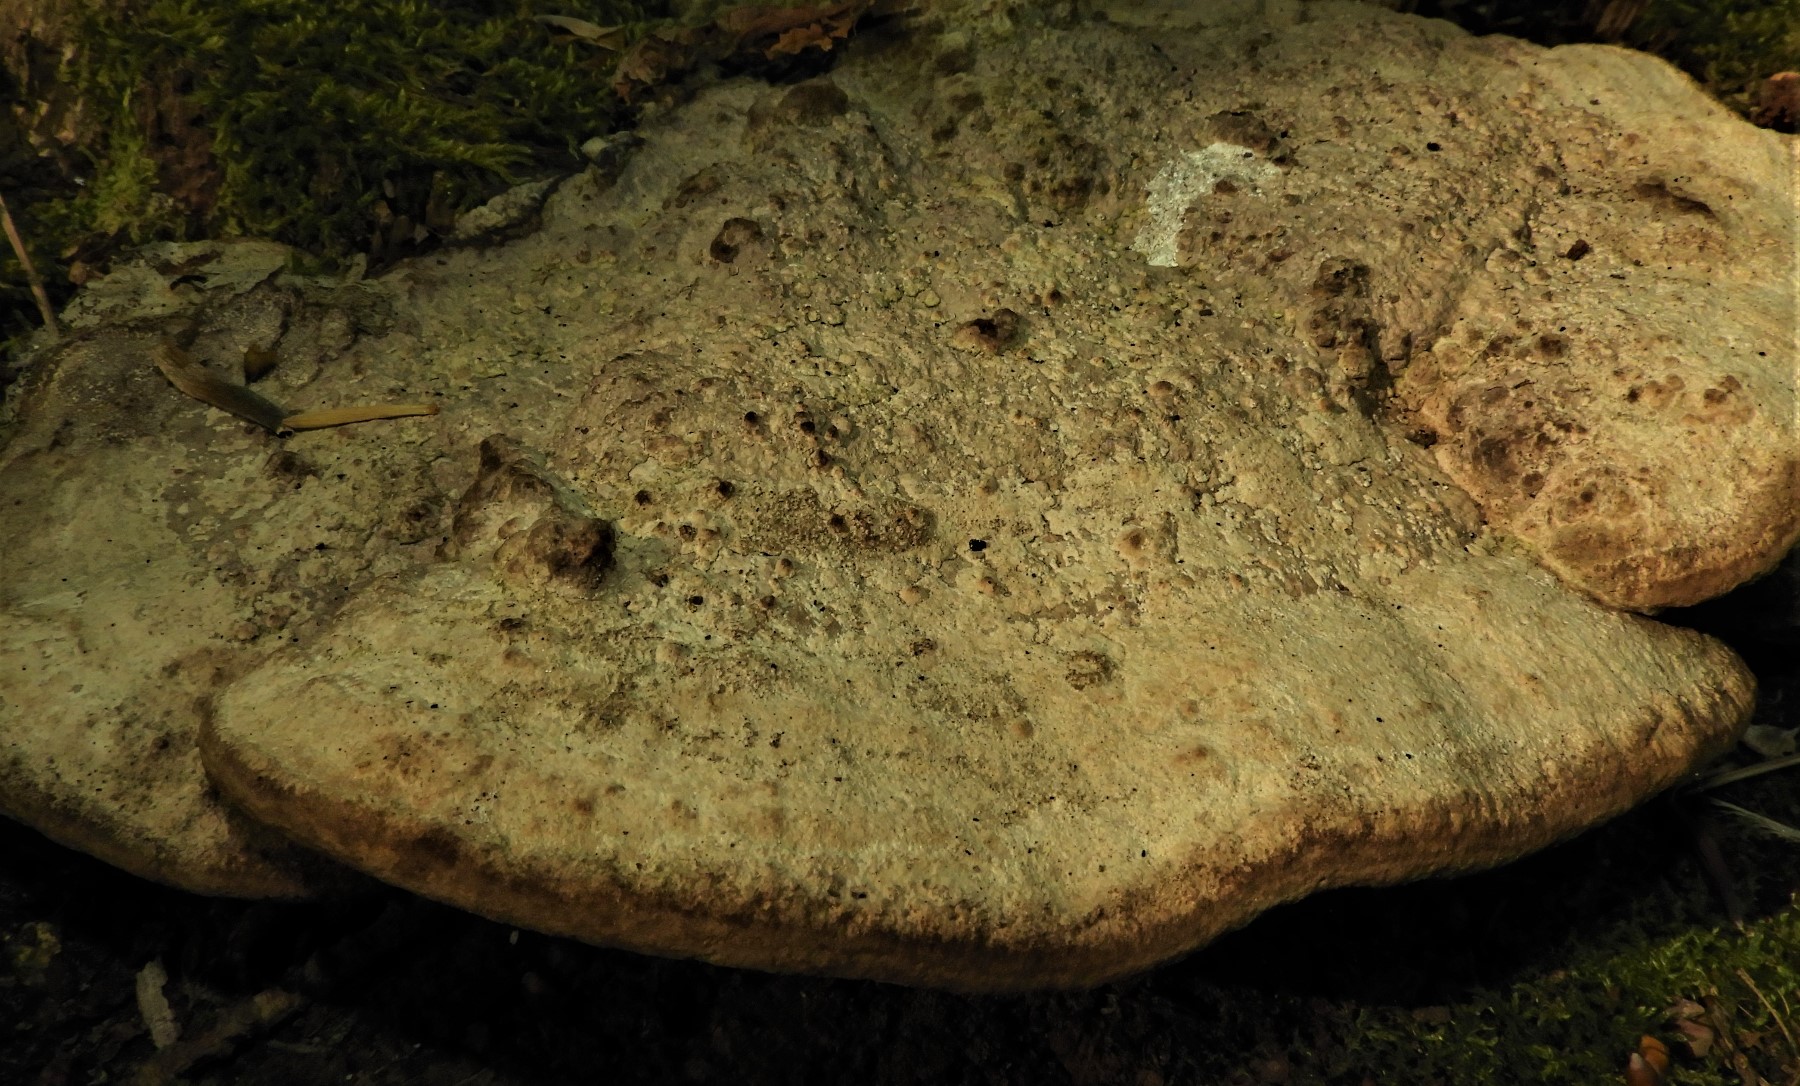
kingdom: Fungi
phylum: Basidiomycota
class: Agaricomycetes
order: Polyporales
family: Fomitopsidaceae
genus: Daedalea
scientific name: Daedalea quercina
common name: ege-labyrintsvamp
